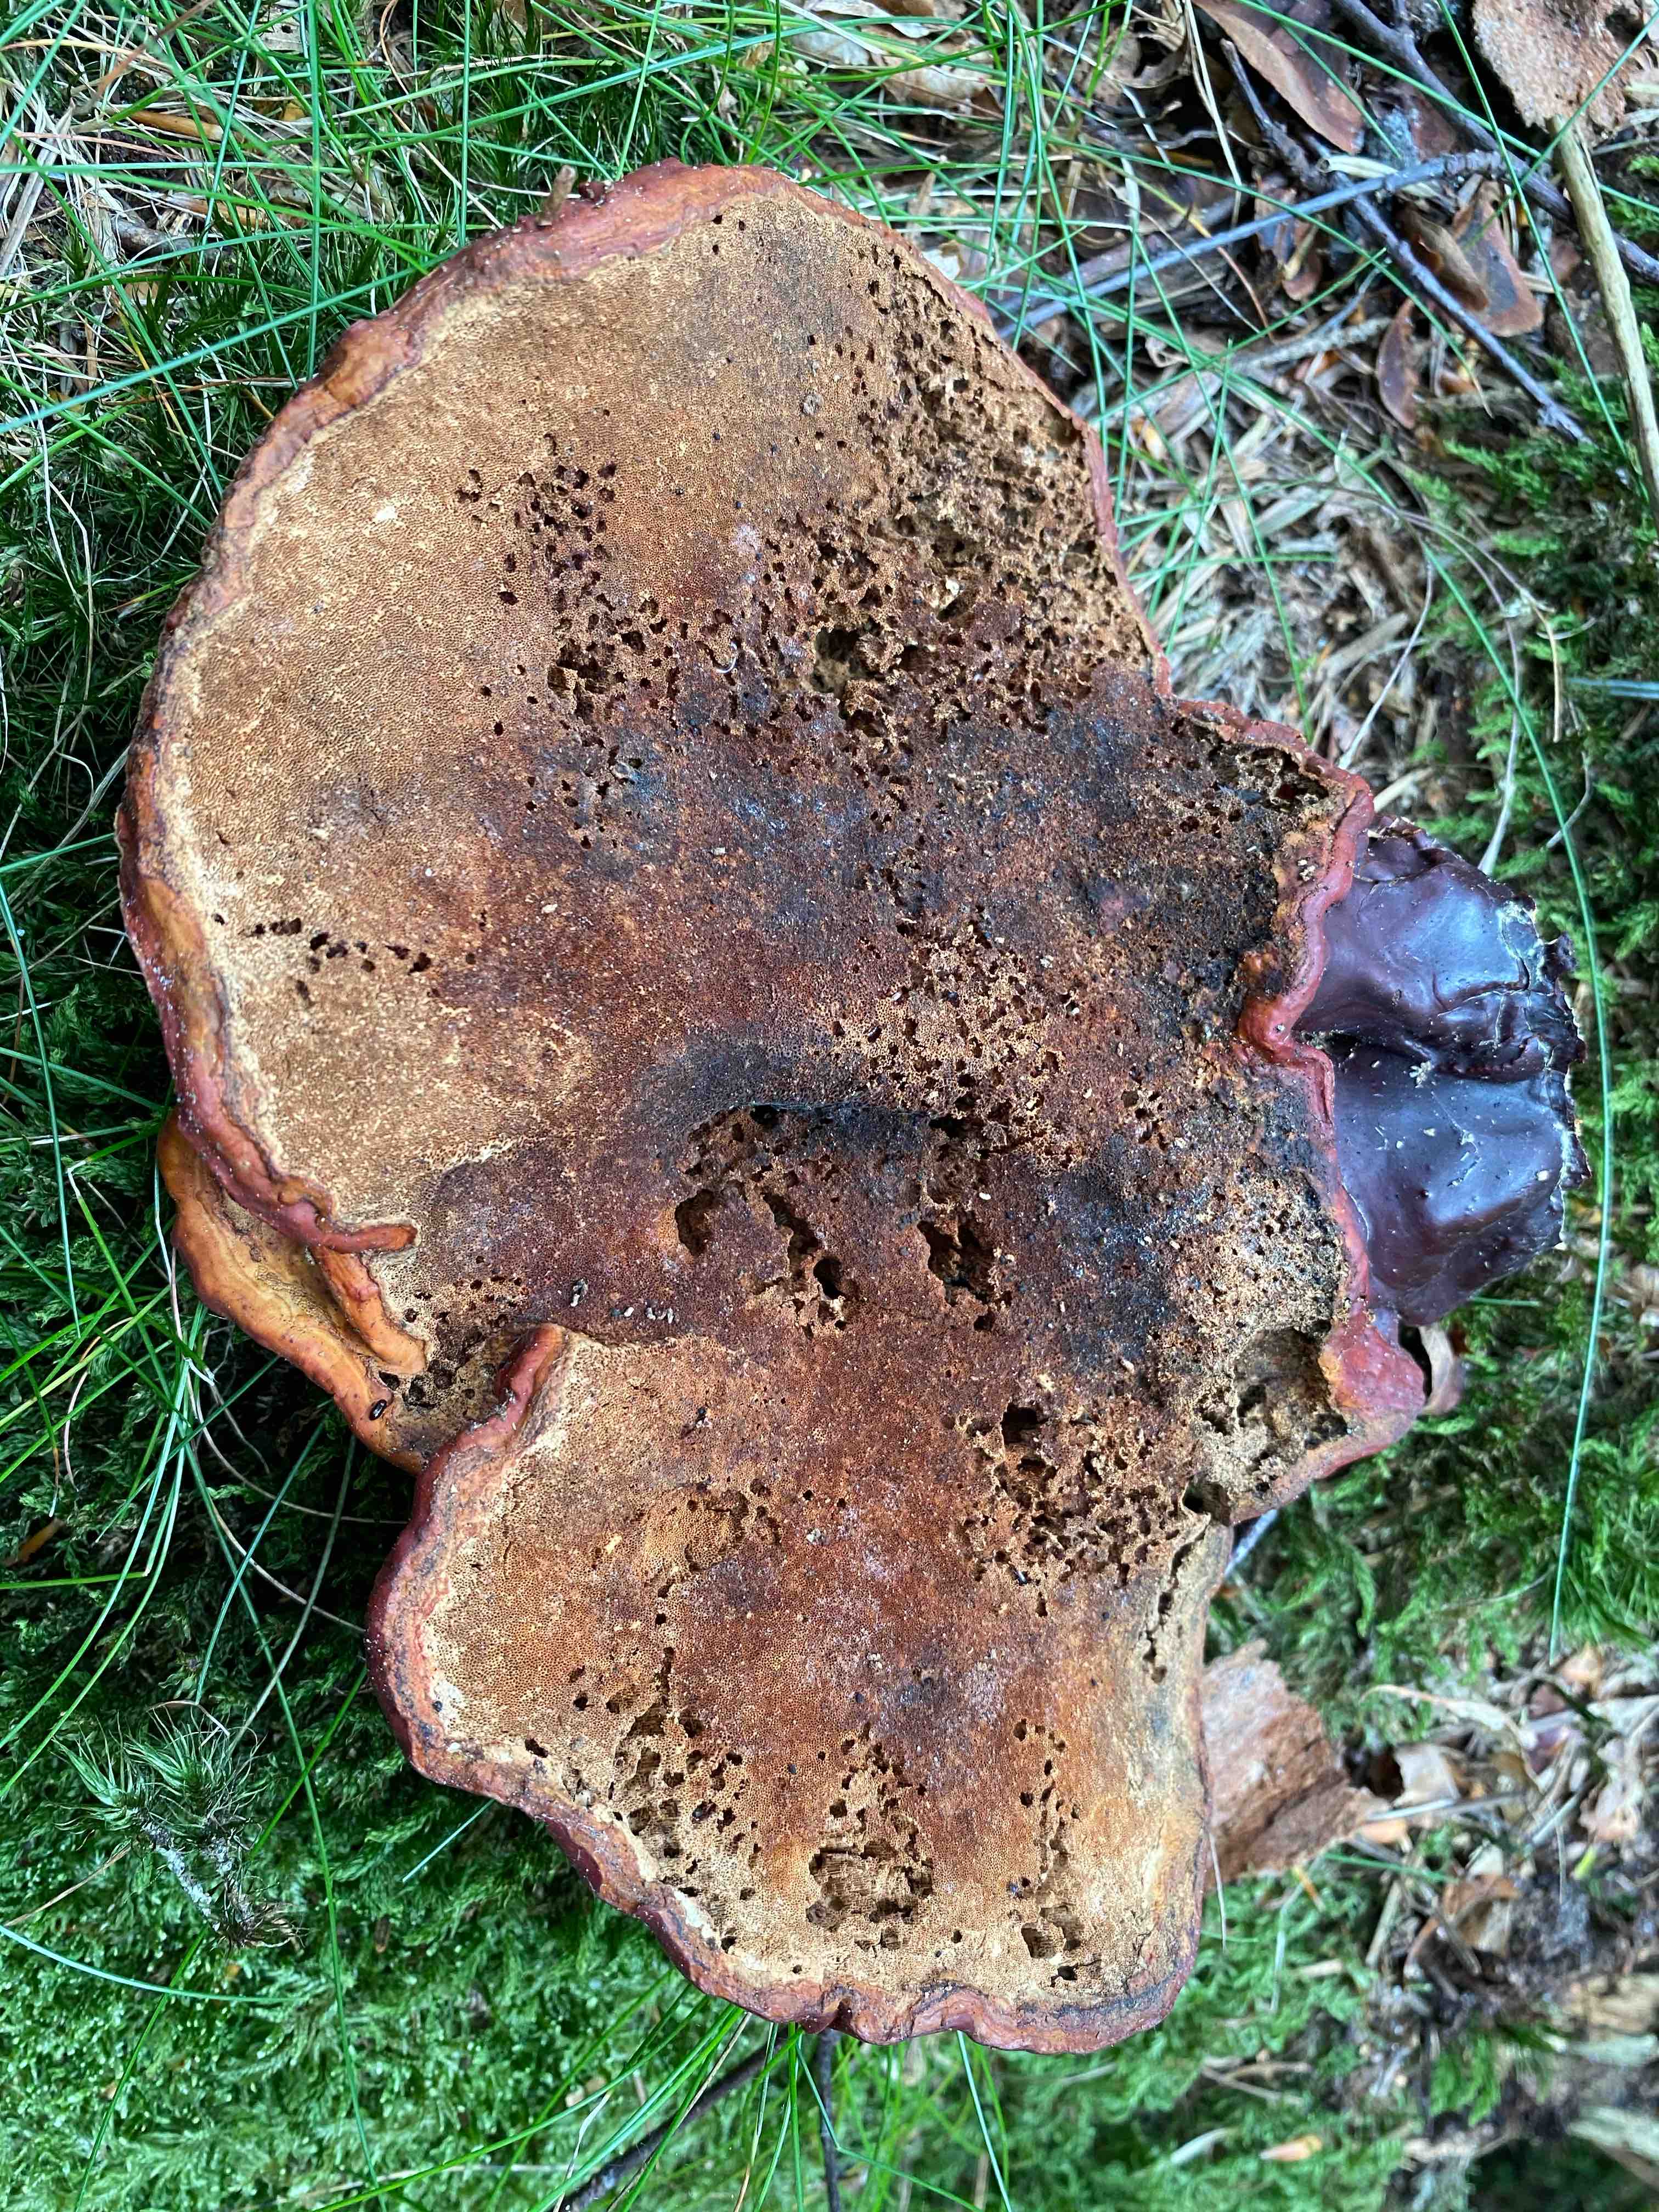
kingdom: Fungi
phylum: Basidiomycota
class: Agaricomycetes
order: Polyporales
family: Polyporaceae
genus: Ganoderma
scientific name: Ganoderma lucidum
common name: skinnende lakporesvamp
